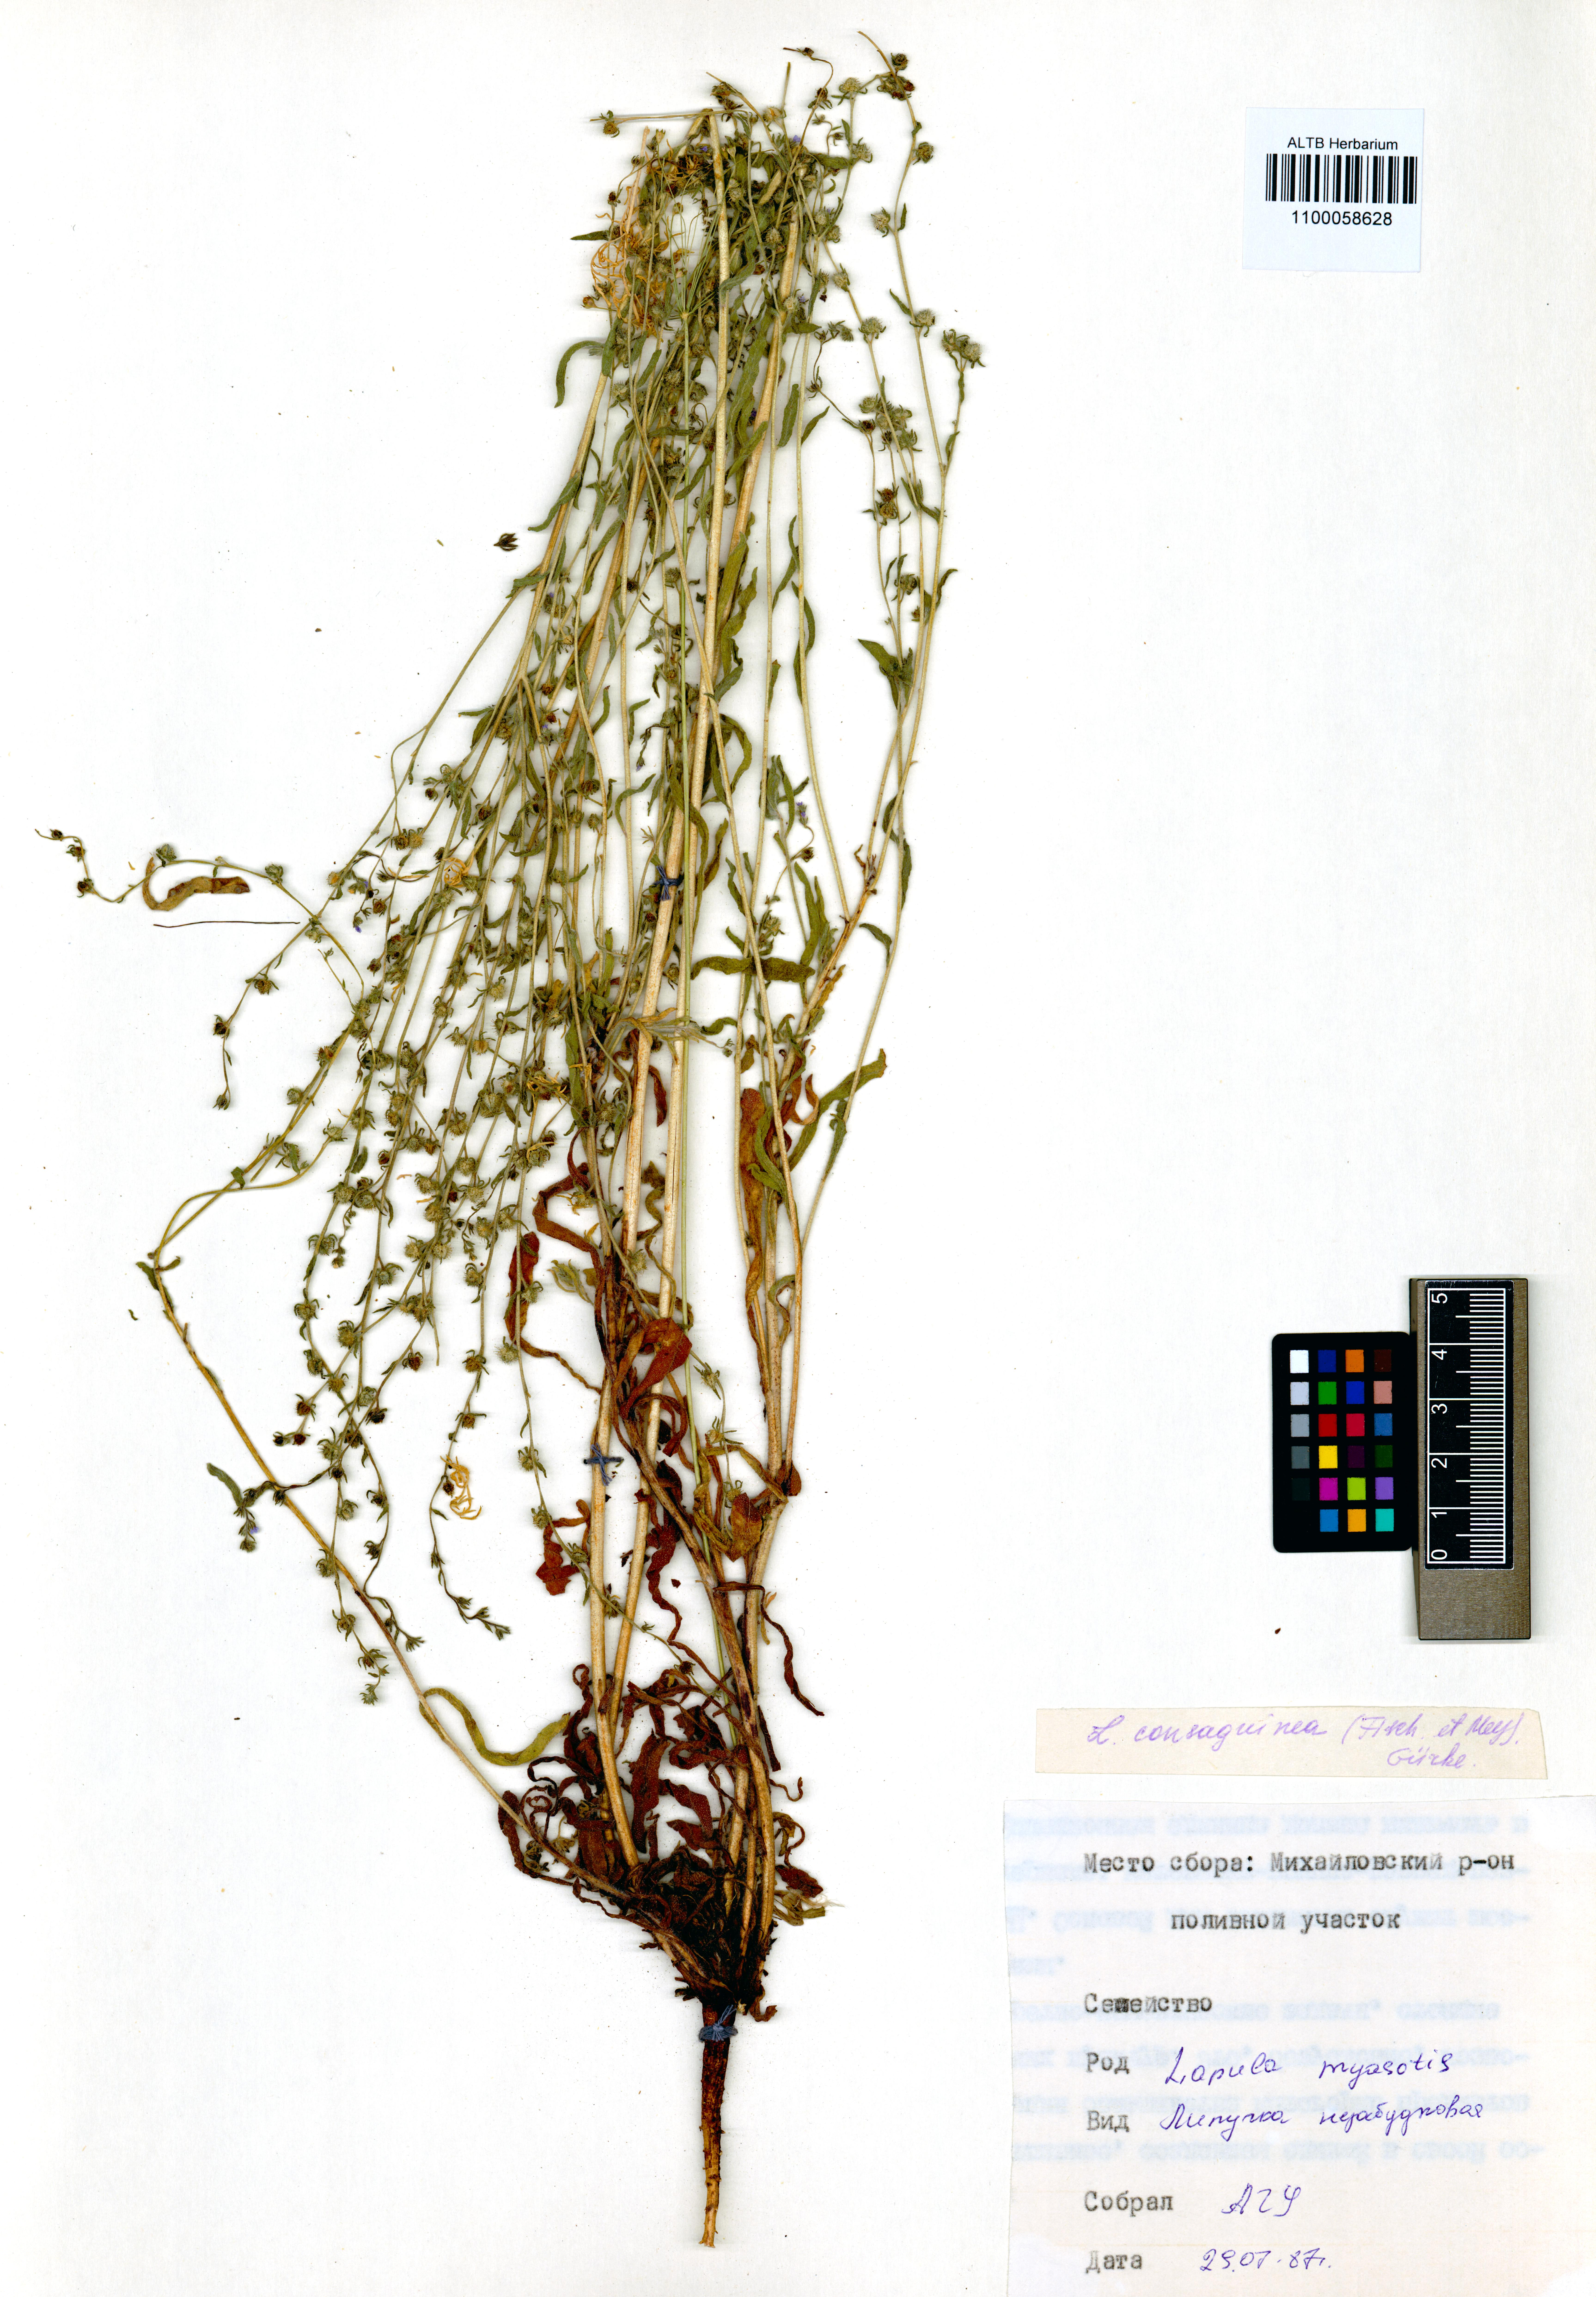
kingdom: Plantae
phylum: Tracheophyta
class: Magnoliopsida
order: Boraginales
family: Boraginaceae
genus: Lappula
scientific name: Lappula squarrosa
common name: European stickseed
